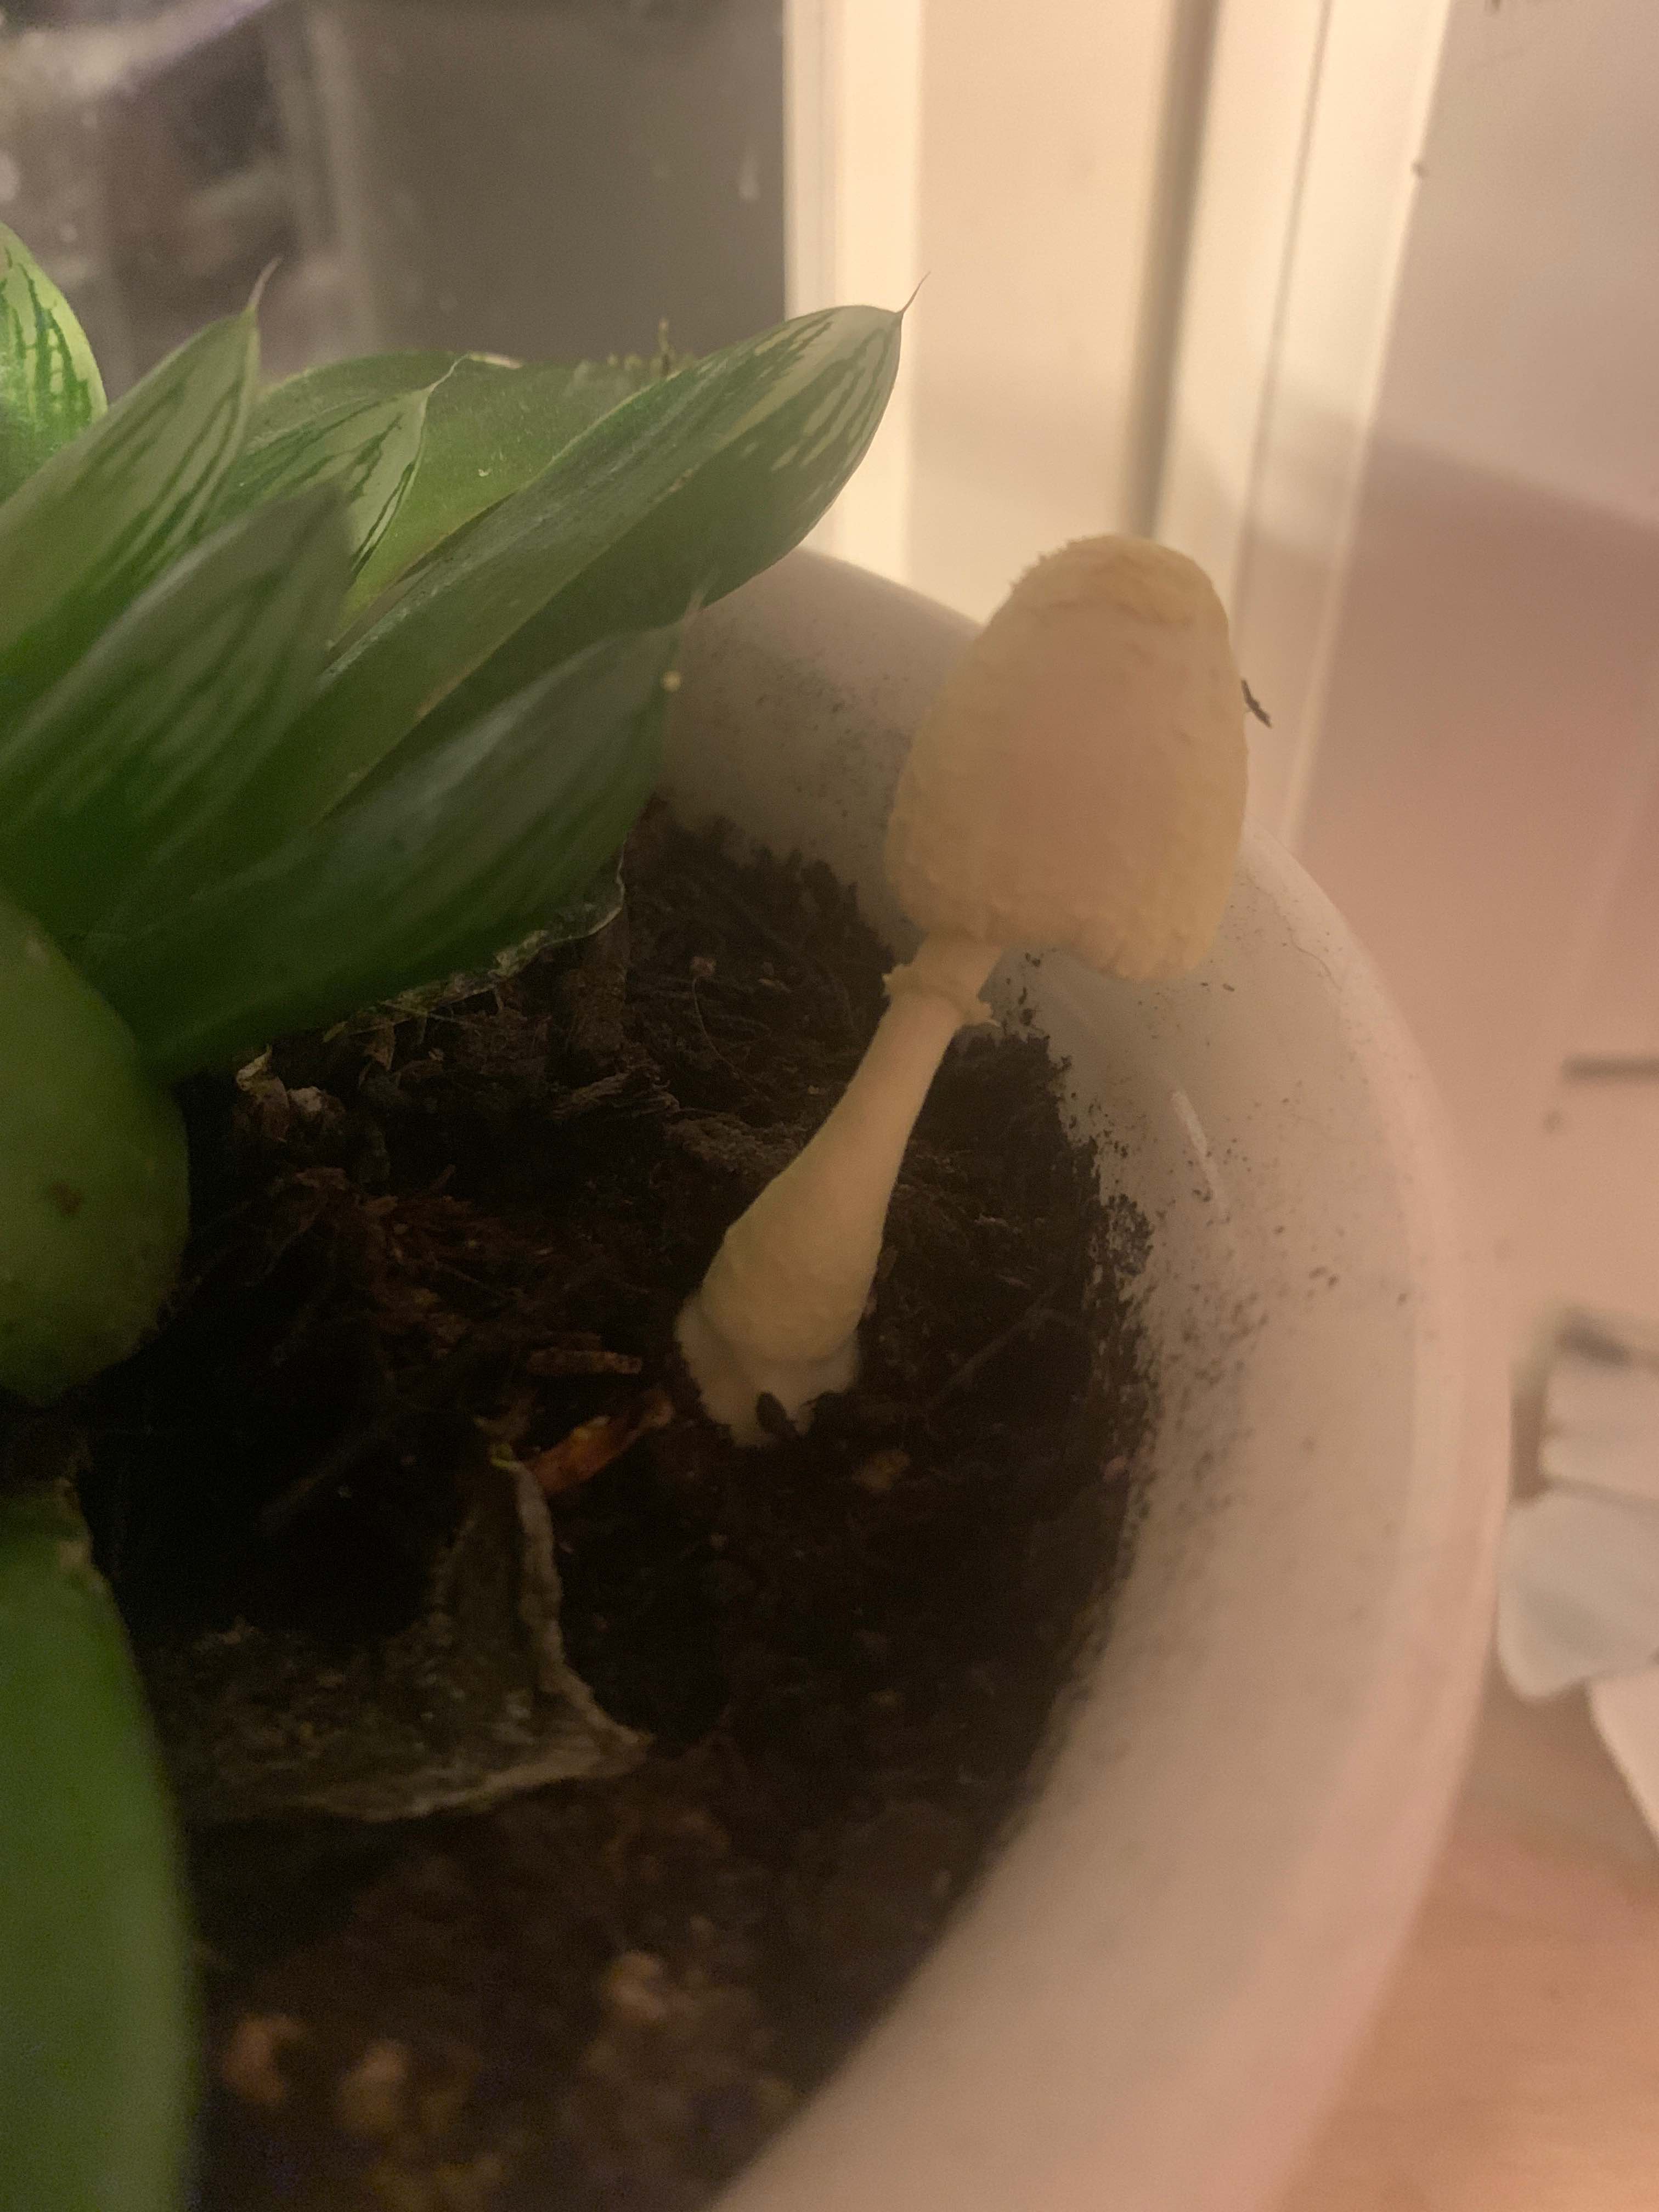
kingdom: Fungi
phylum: Basidiomycota
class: Agaricomycetes
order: Agaricales
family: Agaricaceae
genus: Leucocoprinus
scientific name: Leucocoprinus
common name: silkehat
